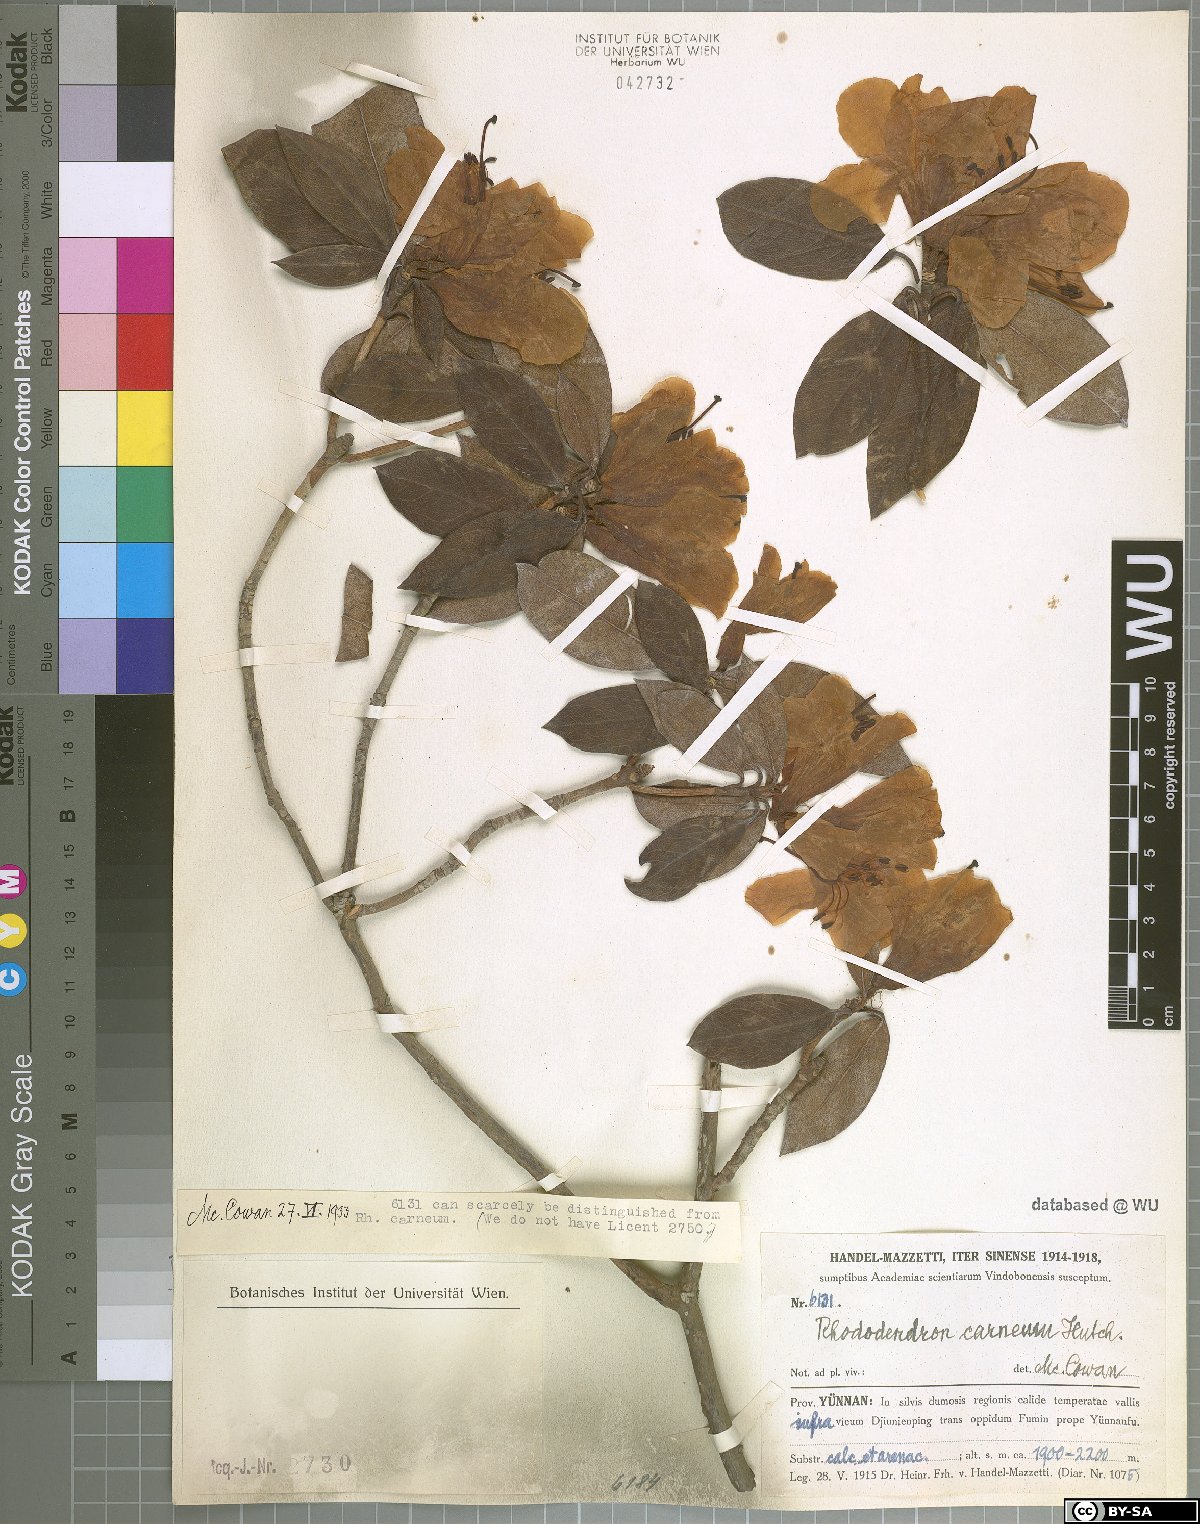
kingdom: Plantae
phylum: Tracheophyta
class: Magnoliopsida
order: Ericales
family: Ericaceae
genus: Rhododendron
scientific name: Rhododendron carneum
